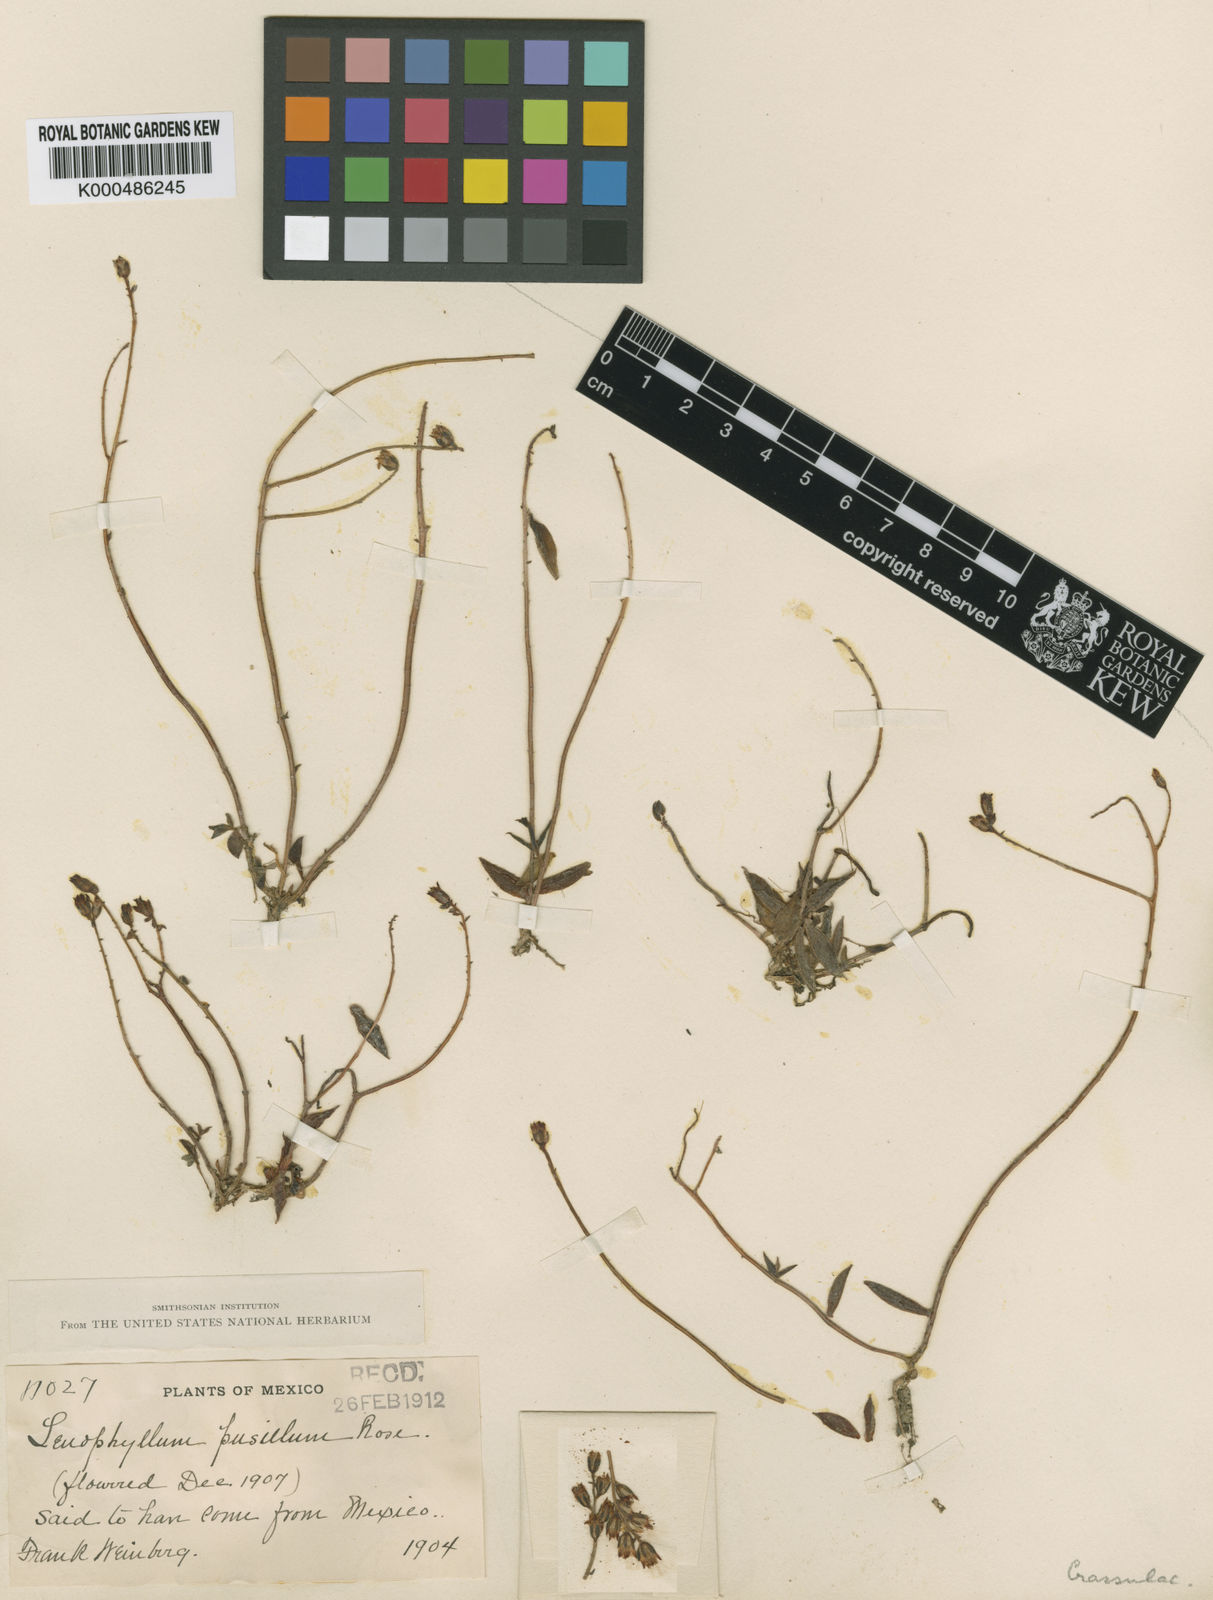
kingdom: Plantae
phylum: Tracheophyta
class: Magnoliopsida
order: Saxifragales
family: Crassulaceae
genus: Lenophyllum
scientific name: Lenophyllum texanum
